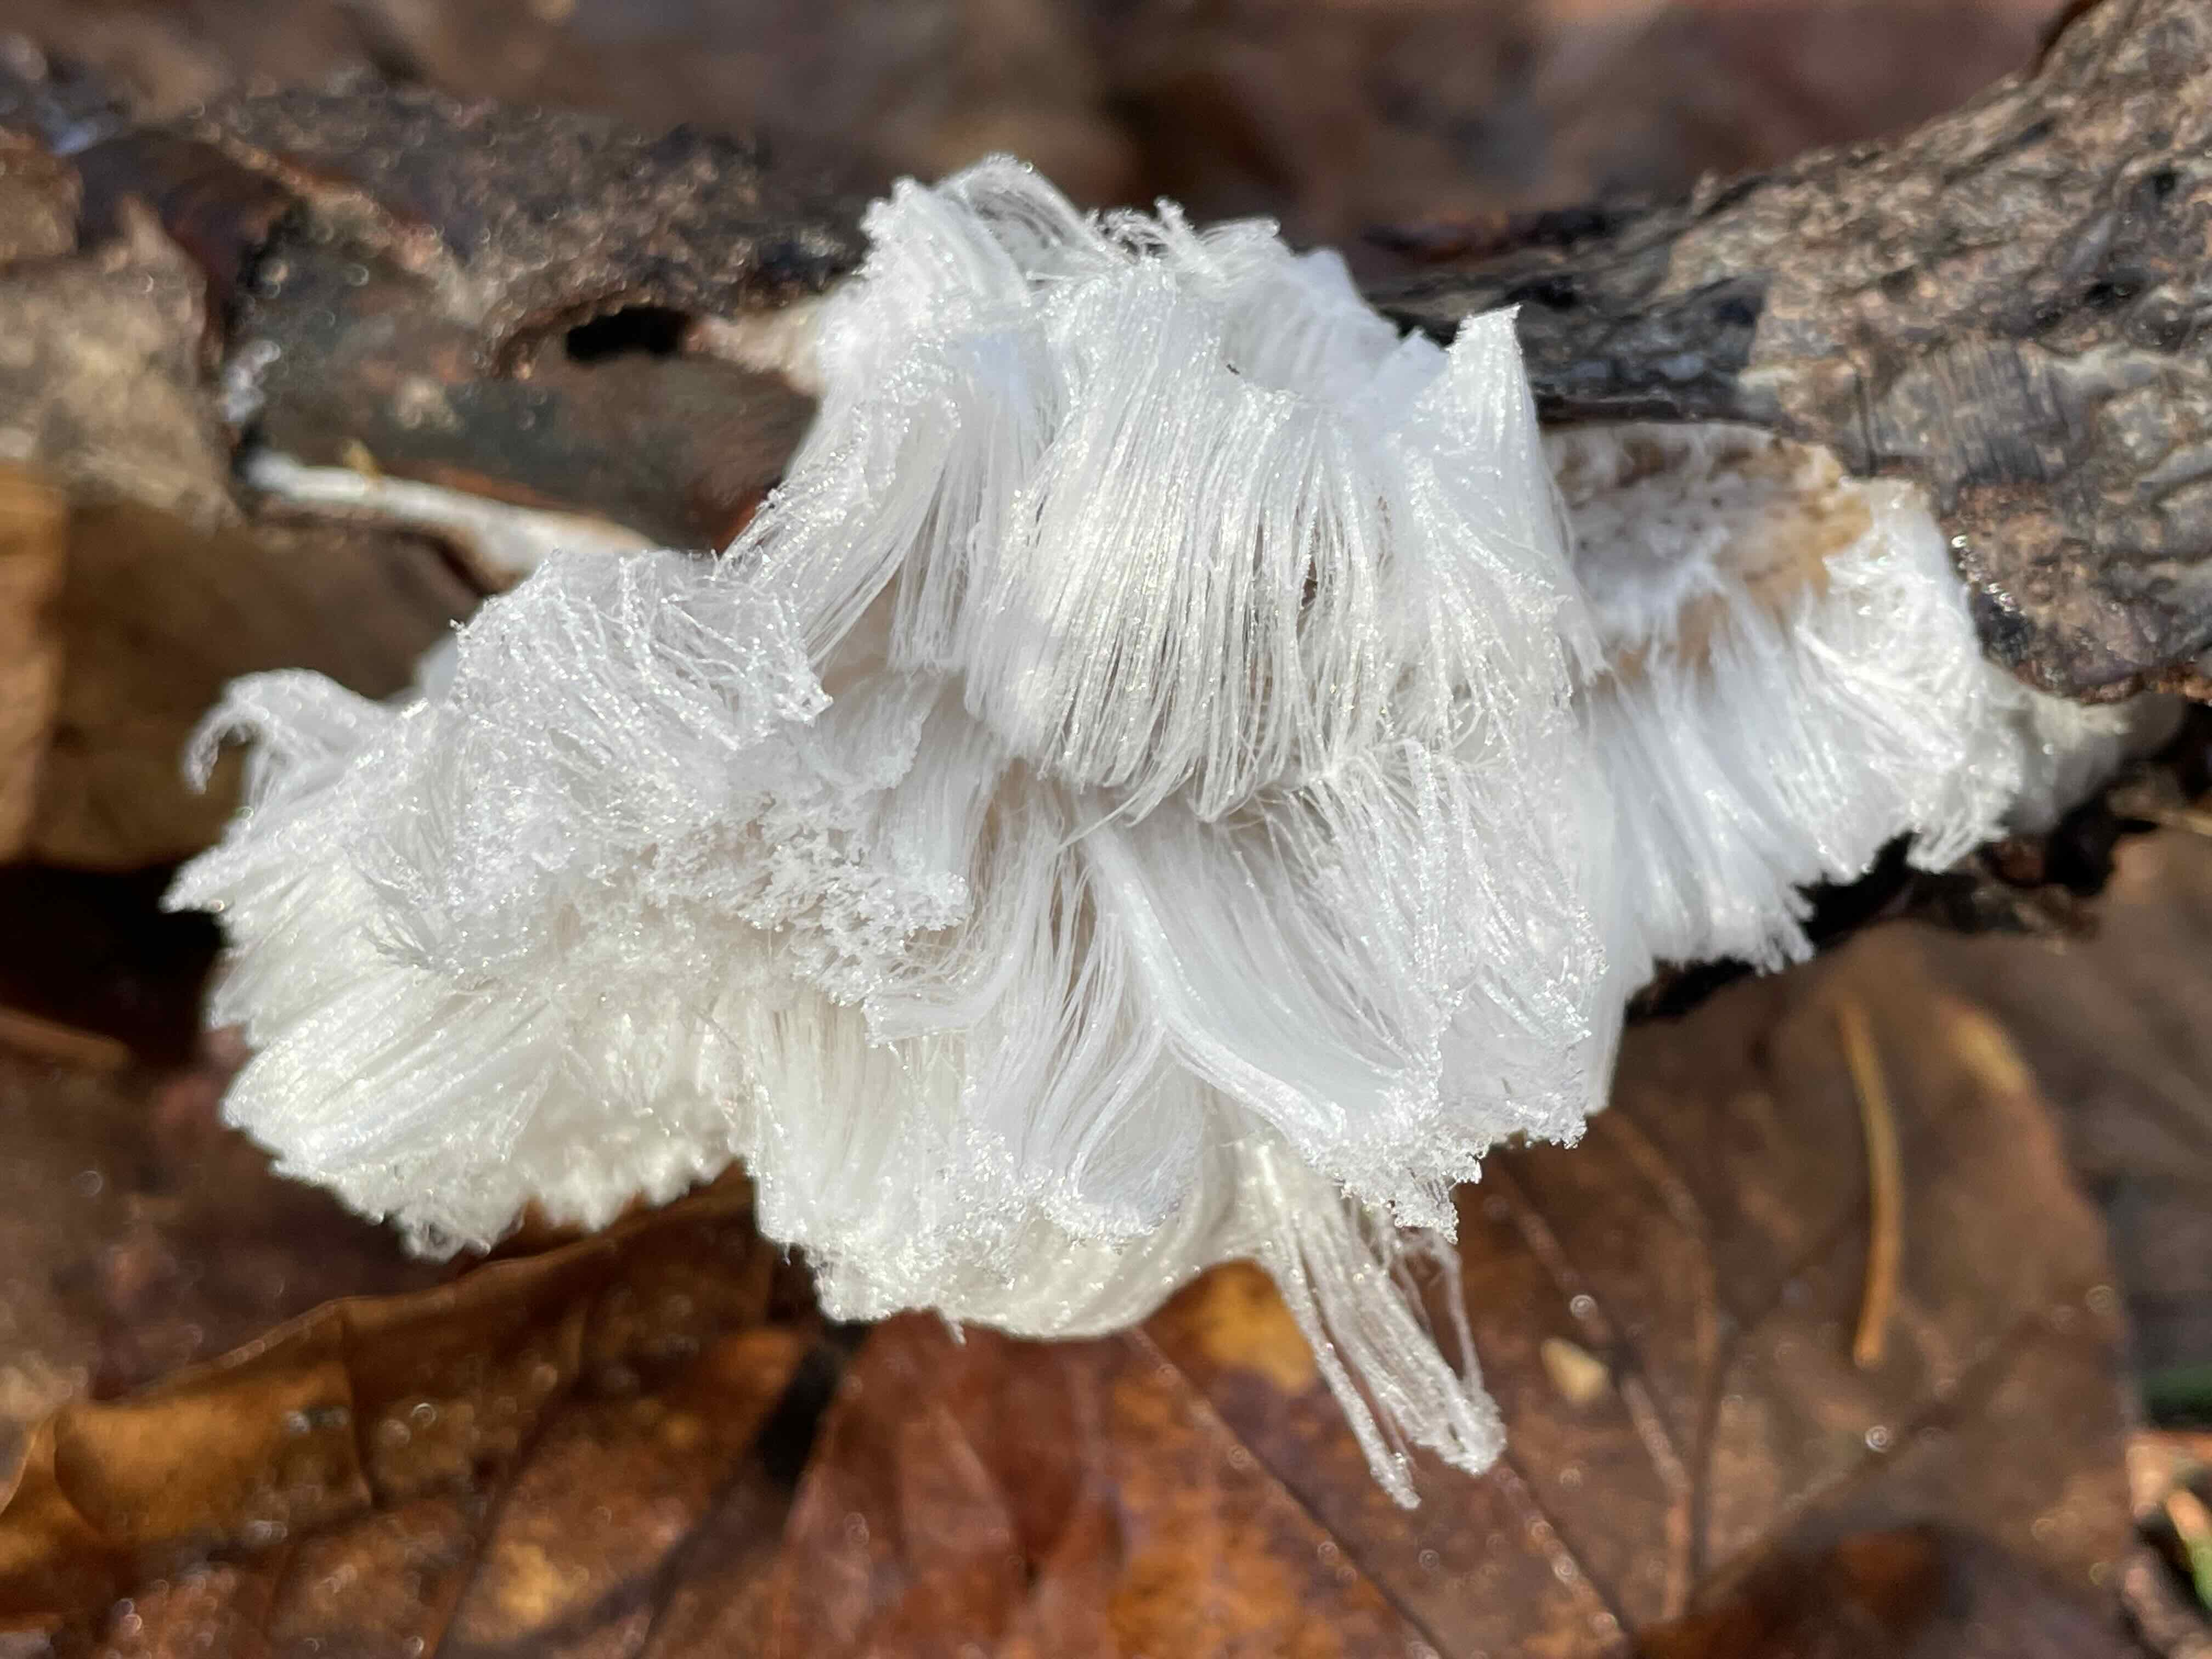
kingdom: Fungi
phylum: Basidiomycota
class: Tremellomycetes
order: Tremellales
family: Exidiaceae
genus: Exidiopsis
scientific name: Exidiopsis effusa
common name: smuk bævrehinde
